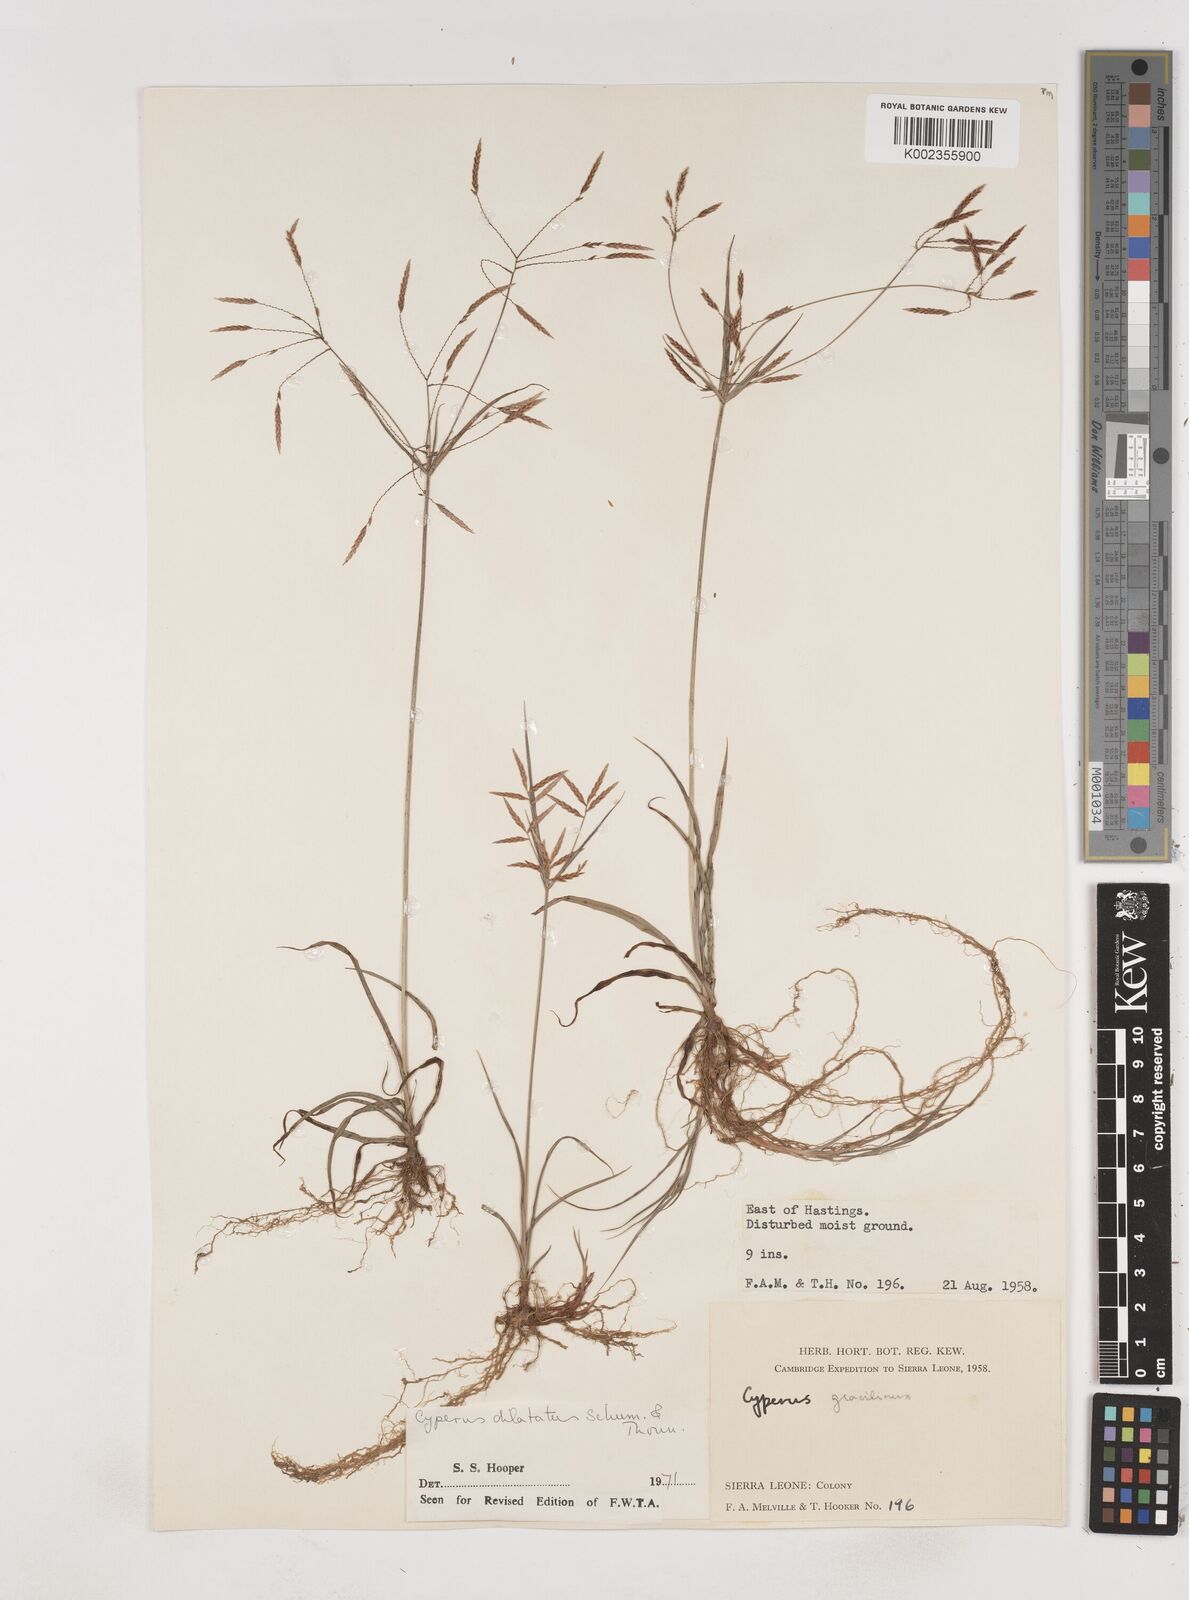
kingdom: Plantae
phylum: Tracheophyta
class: Liliopsida
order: Poales
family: Cyperaceae
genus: Cyperus
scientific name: Cyperus dilatatus
